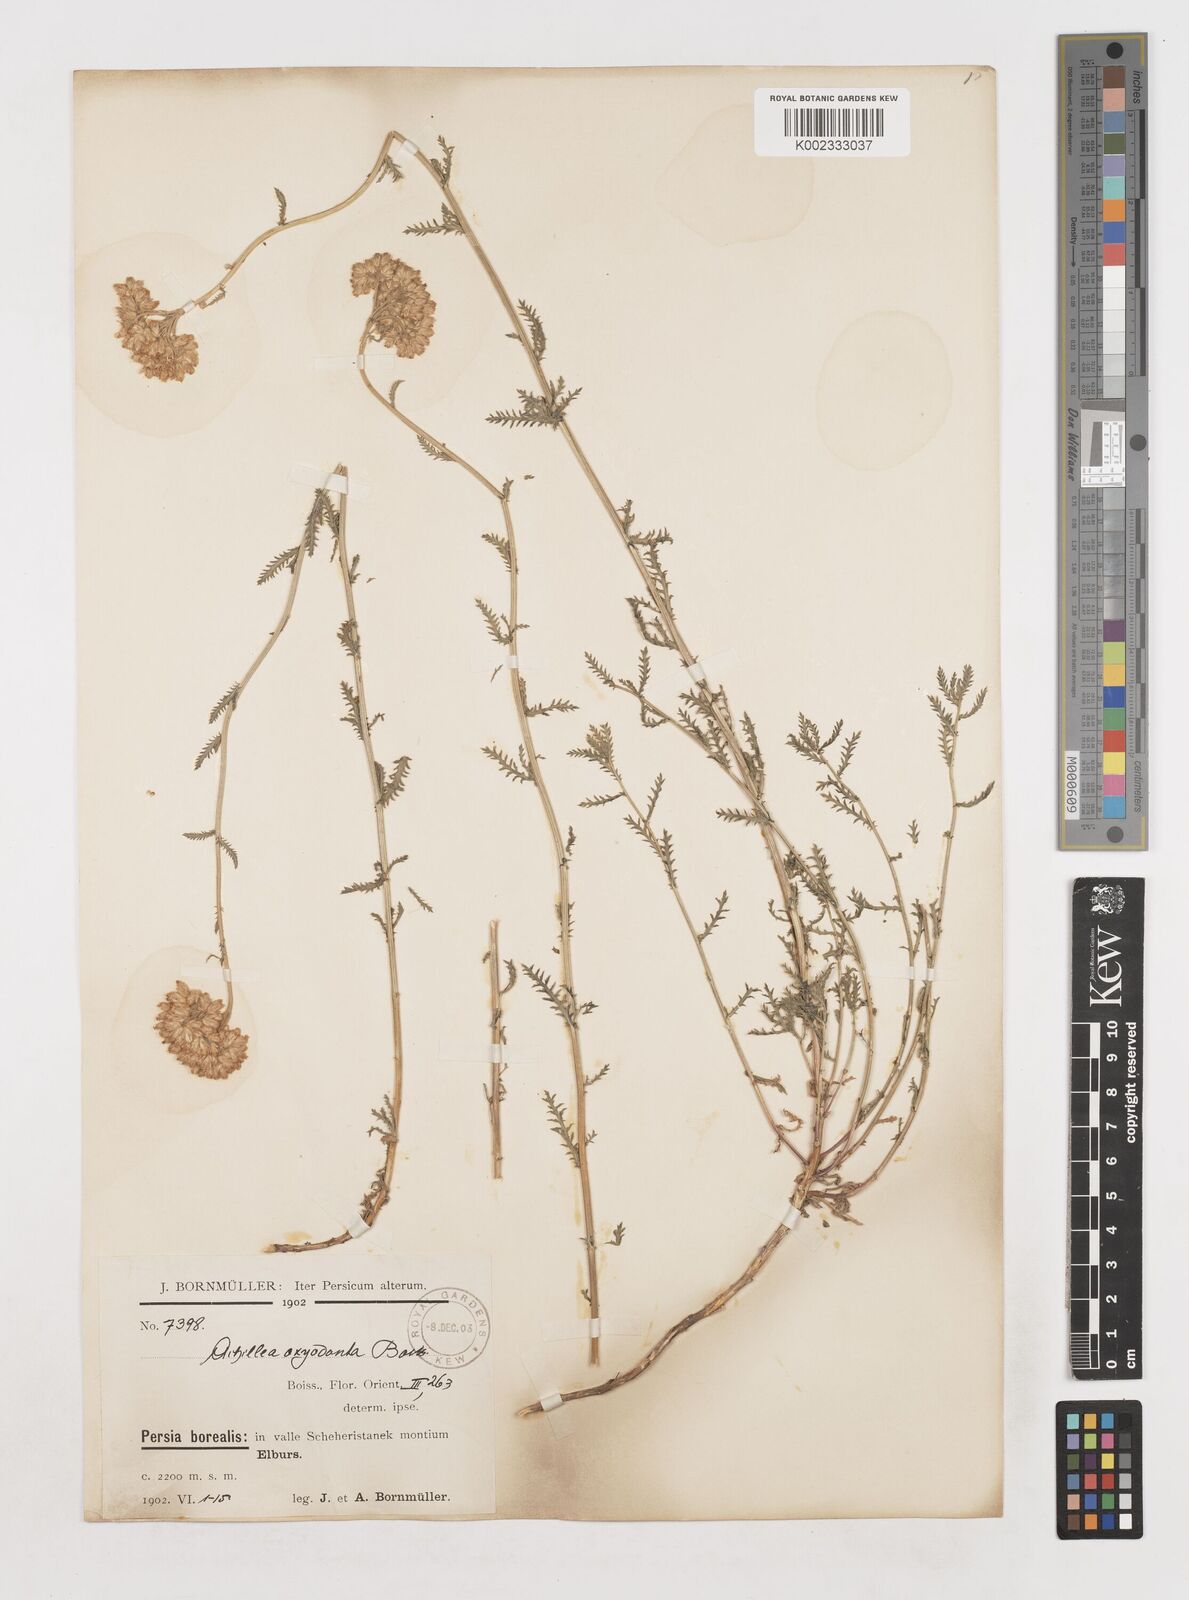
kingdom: Plantae
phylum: Tracheophyta
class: Magnoliopsida
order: Asterales
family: Asteraceae
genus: Achillea
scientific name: Achillea oxyodonta
